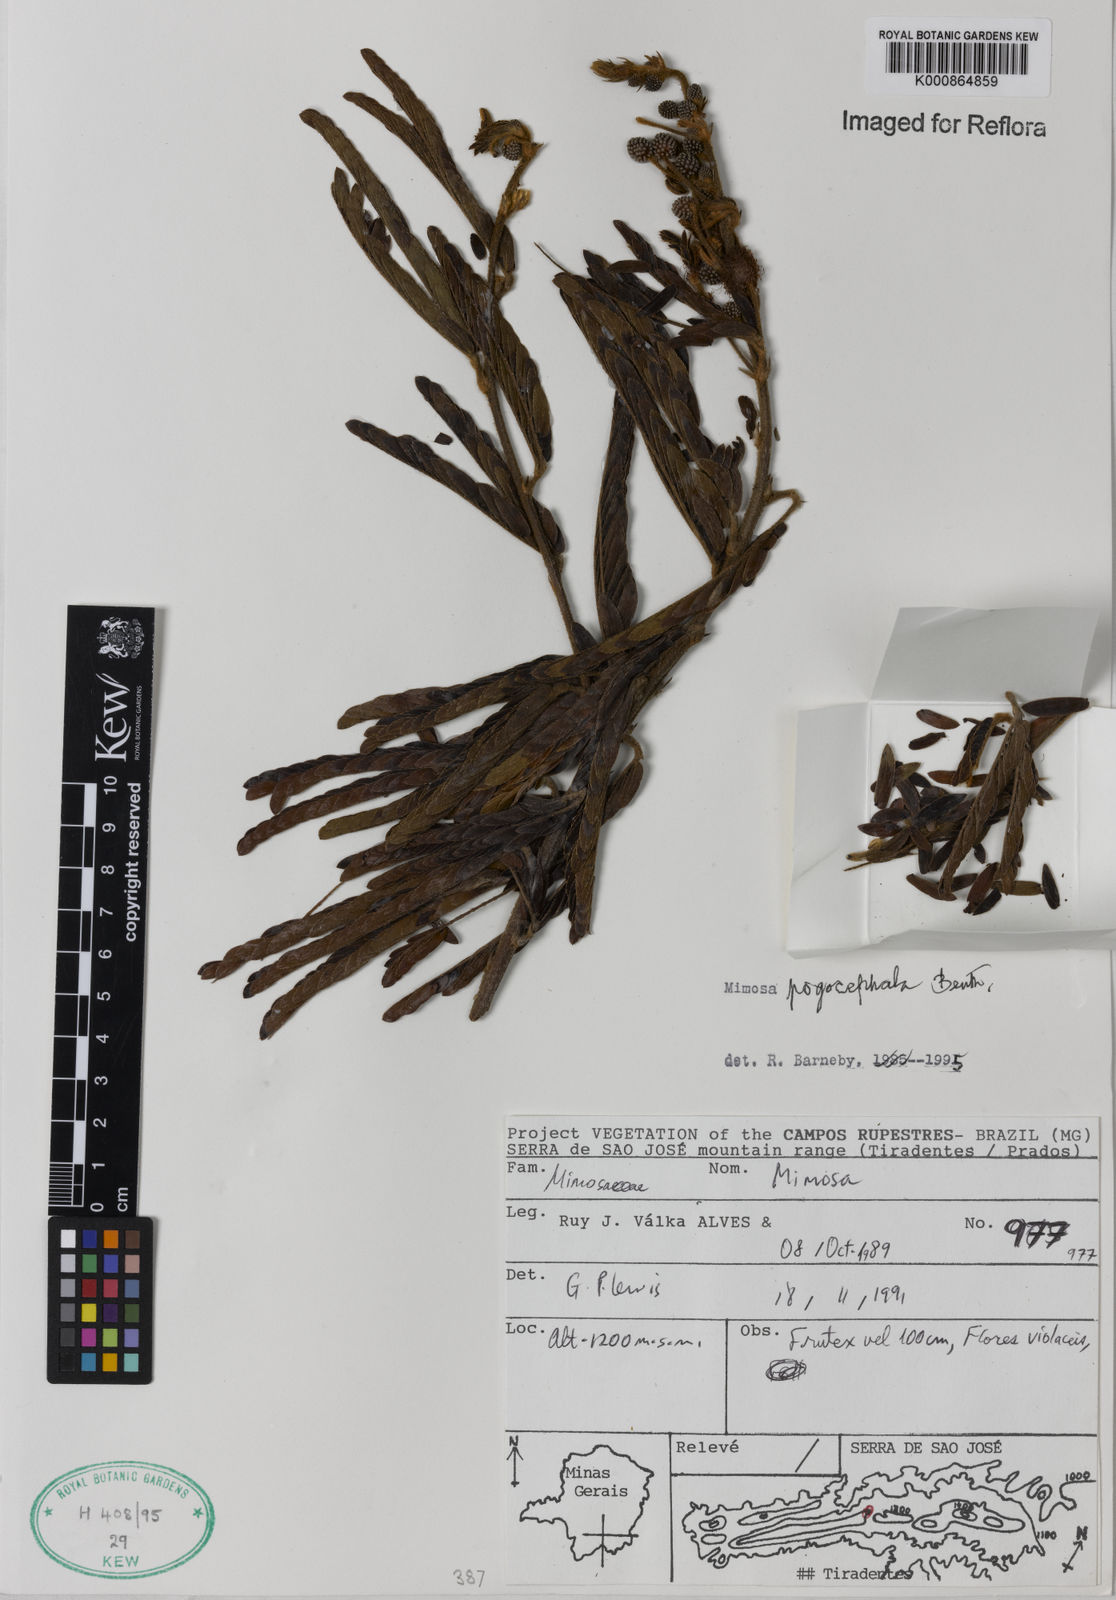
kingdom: Plantae
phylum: Tracheophyta
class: Magnoliopsida
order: Fabales
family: Fabaceae
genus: Mimosa
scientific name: Mimosa pogocephala
